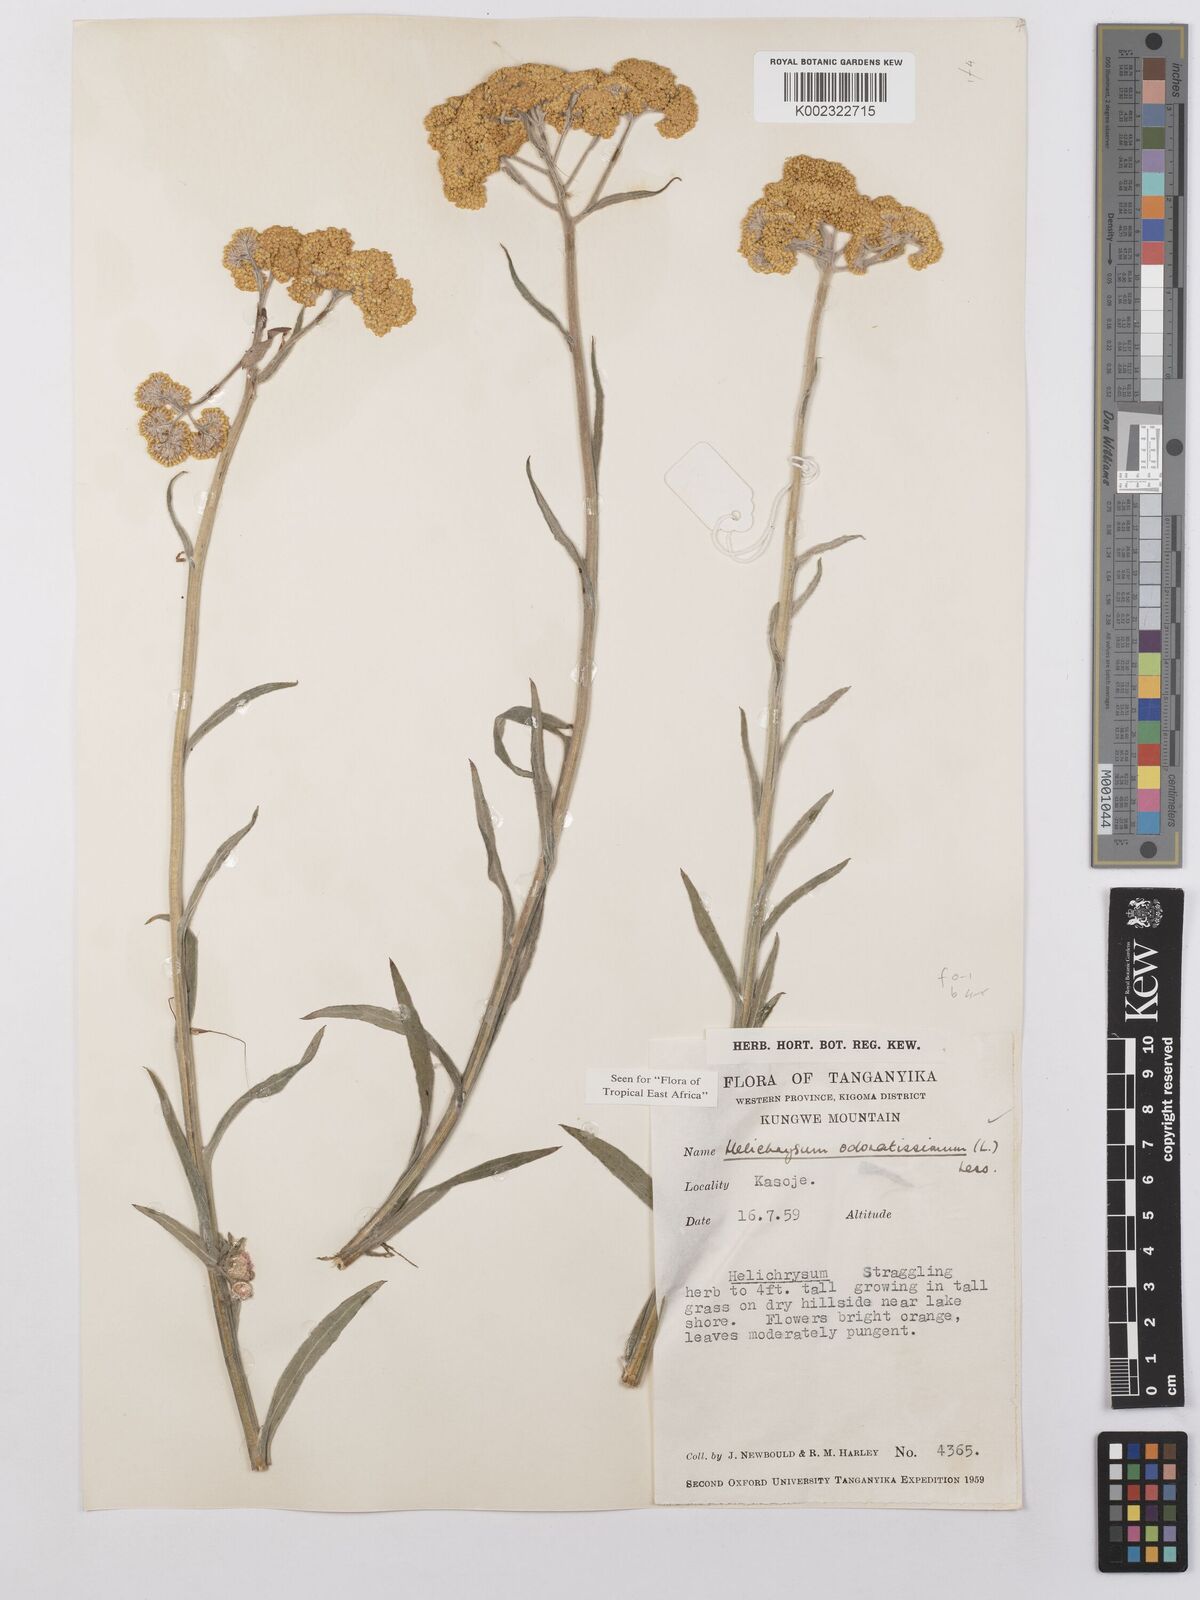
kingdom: Plantae
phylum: Tracheophyta
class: Magnoliopsida
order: Asterales
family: Asteraceae
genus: Helichrysum
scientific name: Helichrysum odoratissimum
